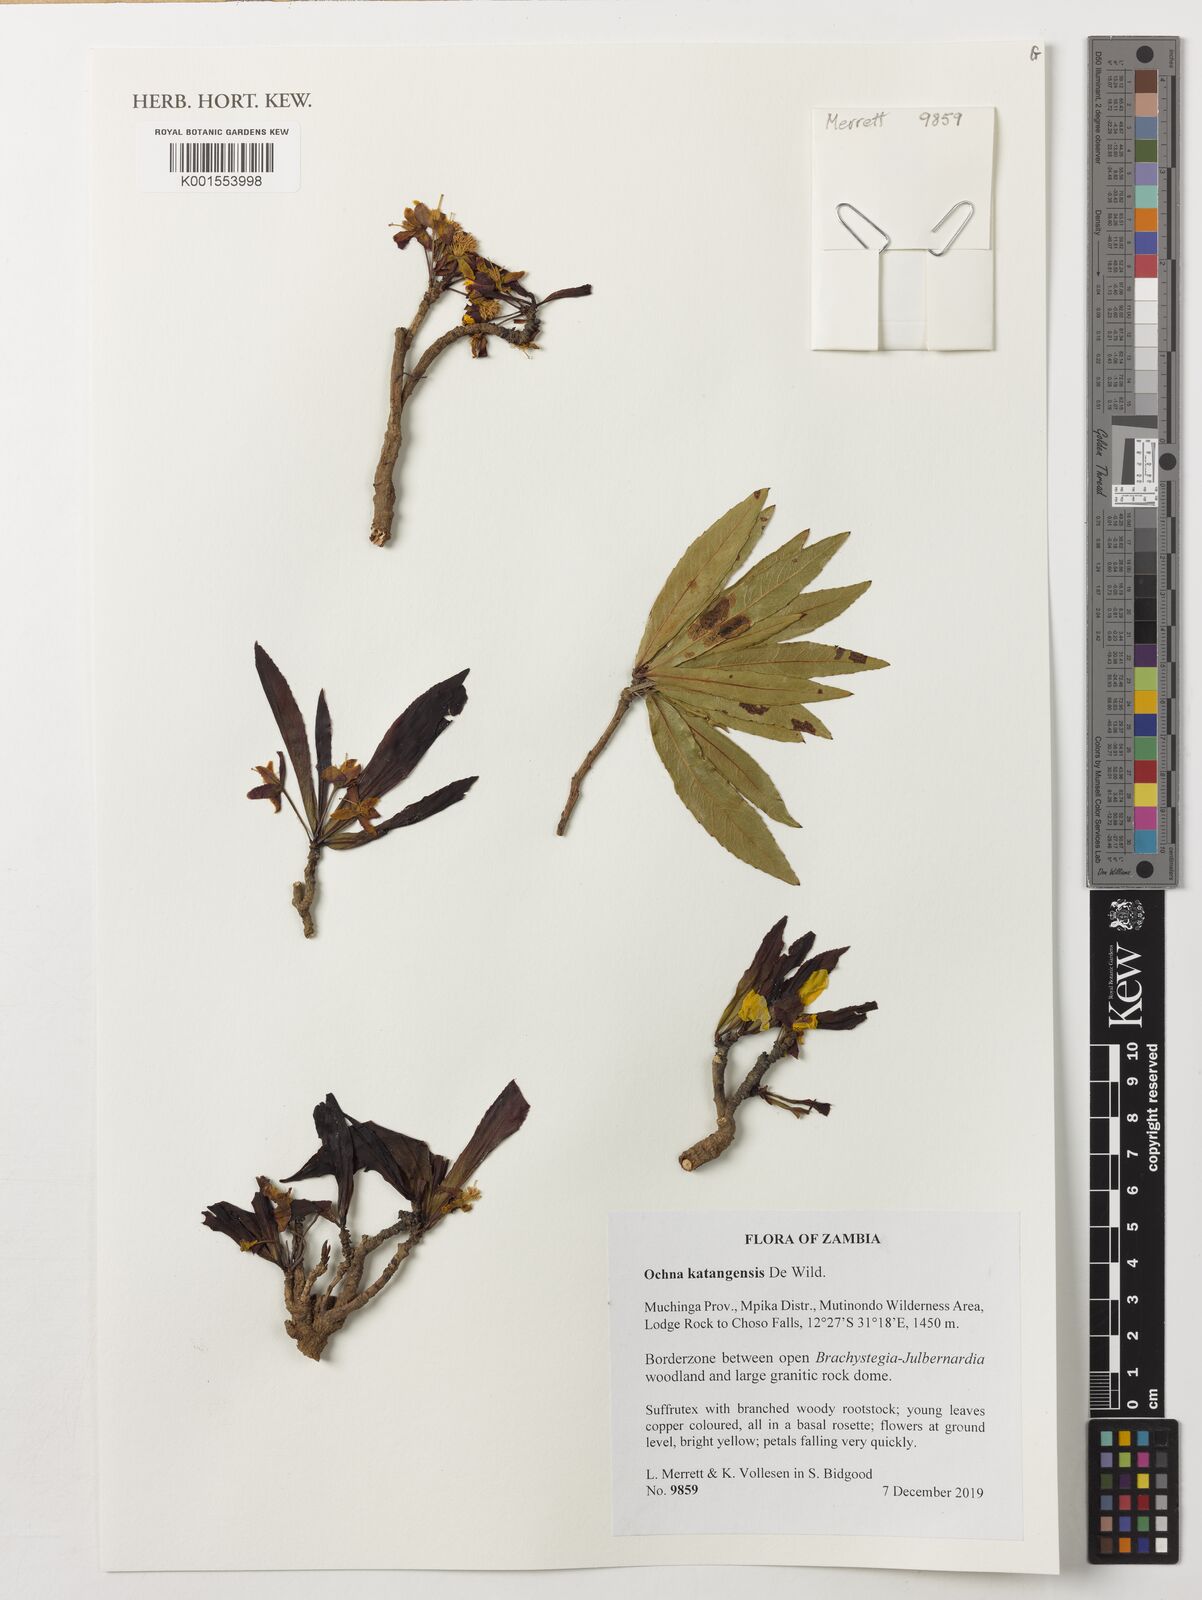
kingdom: Plantae
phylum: Tracheophyta
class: Magnoliopsida
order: Malpighiales
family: Ochnaceae
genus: Ochna
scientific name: Ochna katangensis
